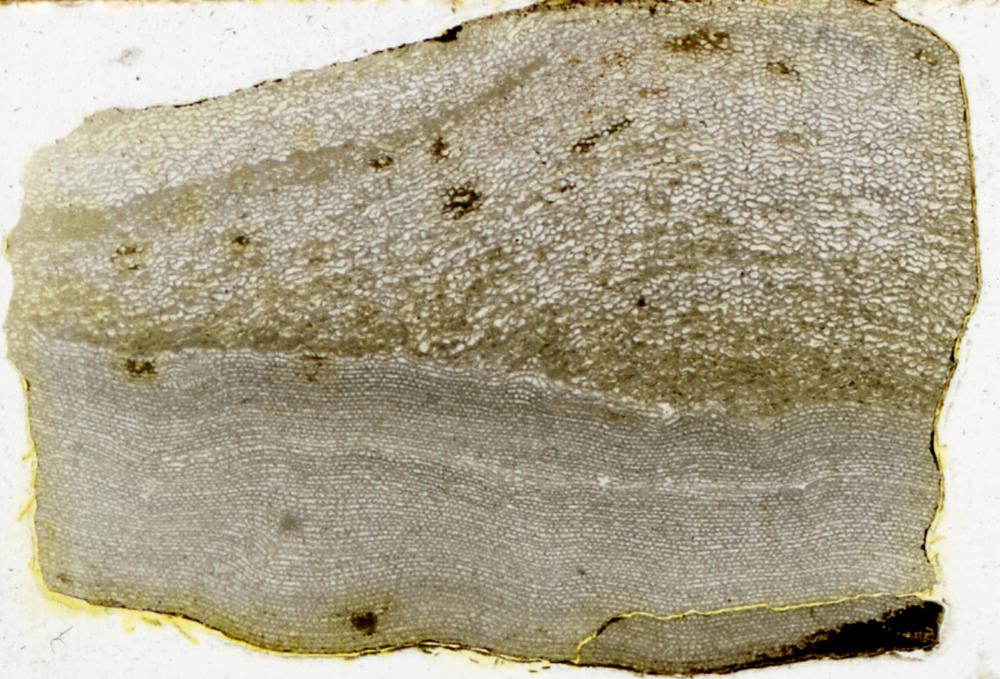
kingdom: Animalia
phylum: Porifera
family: Gerronostromatidae
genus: Petridiostroma
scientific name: Petridiostroma Stromatopora regularis
